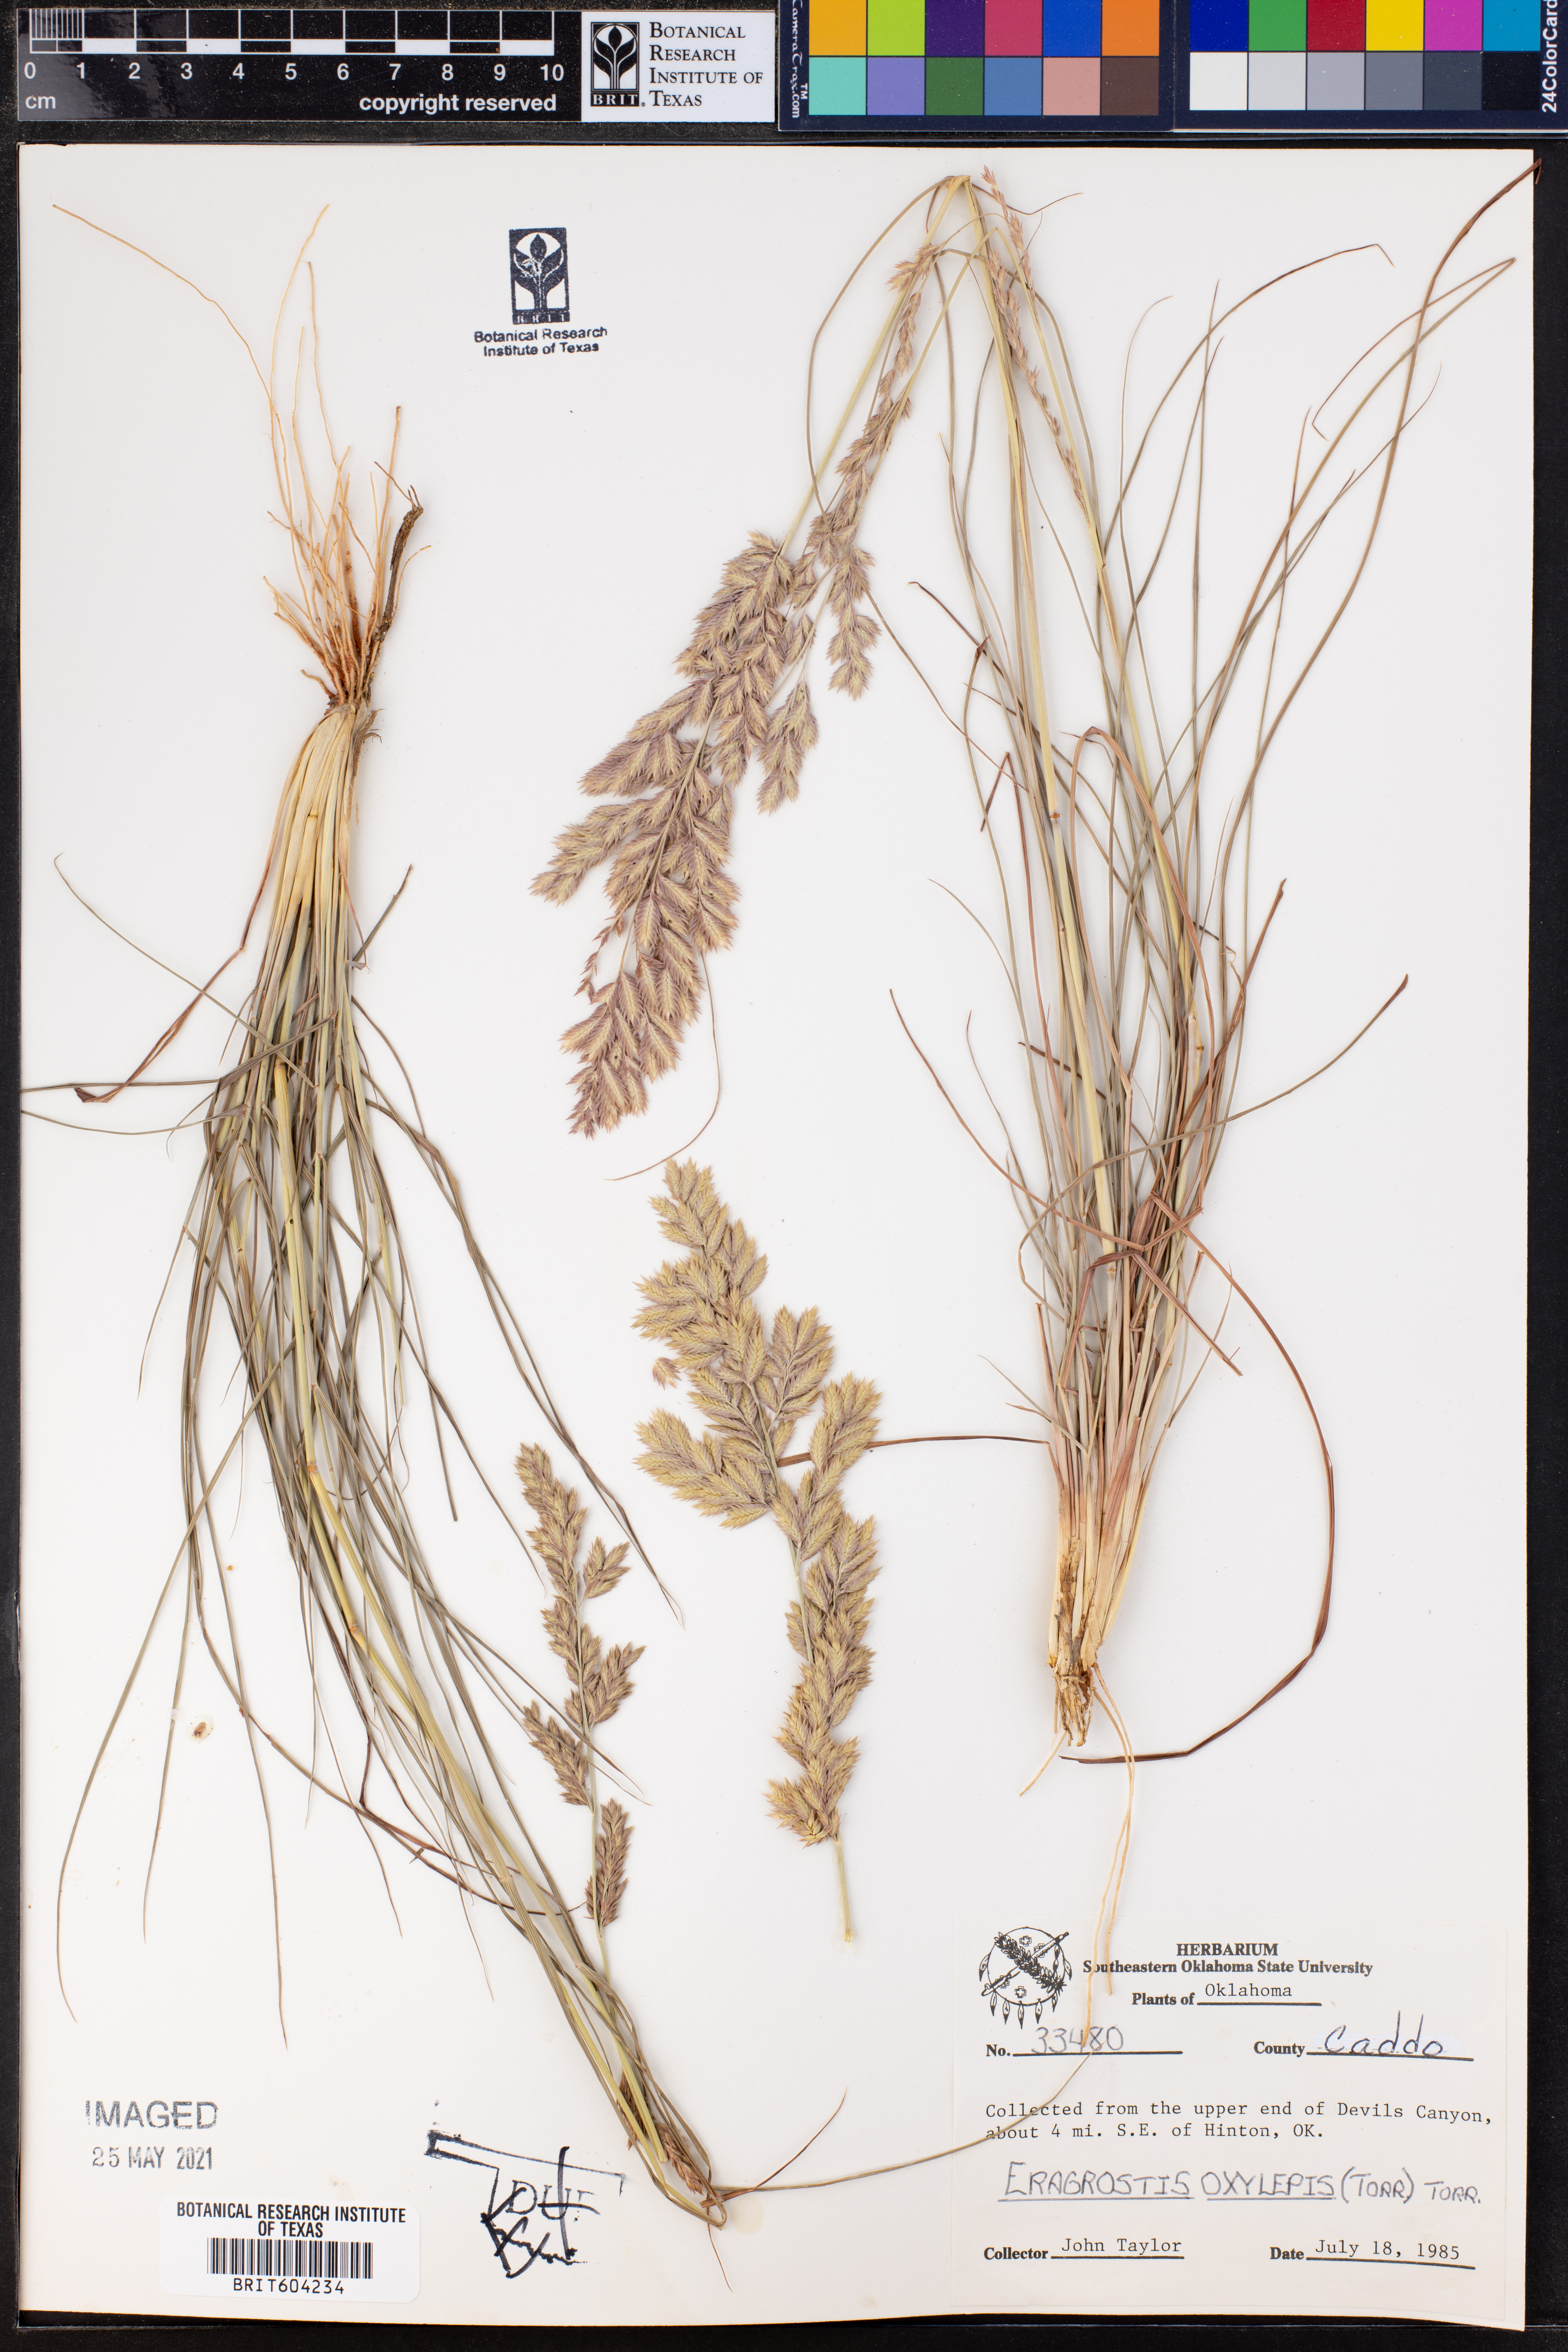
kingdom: Plantae
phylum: Tracheophyta
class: Liliopsida
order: Poales
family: Poaceae
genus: Eragrostis
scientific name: Eragrostis secundiflora
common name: Red love grass
